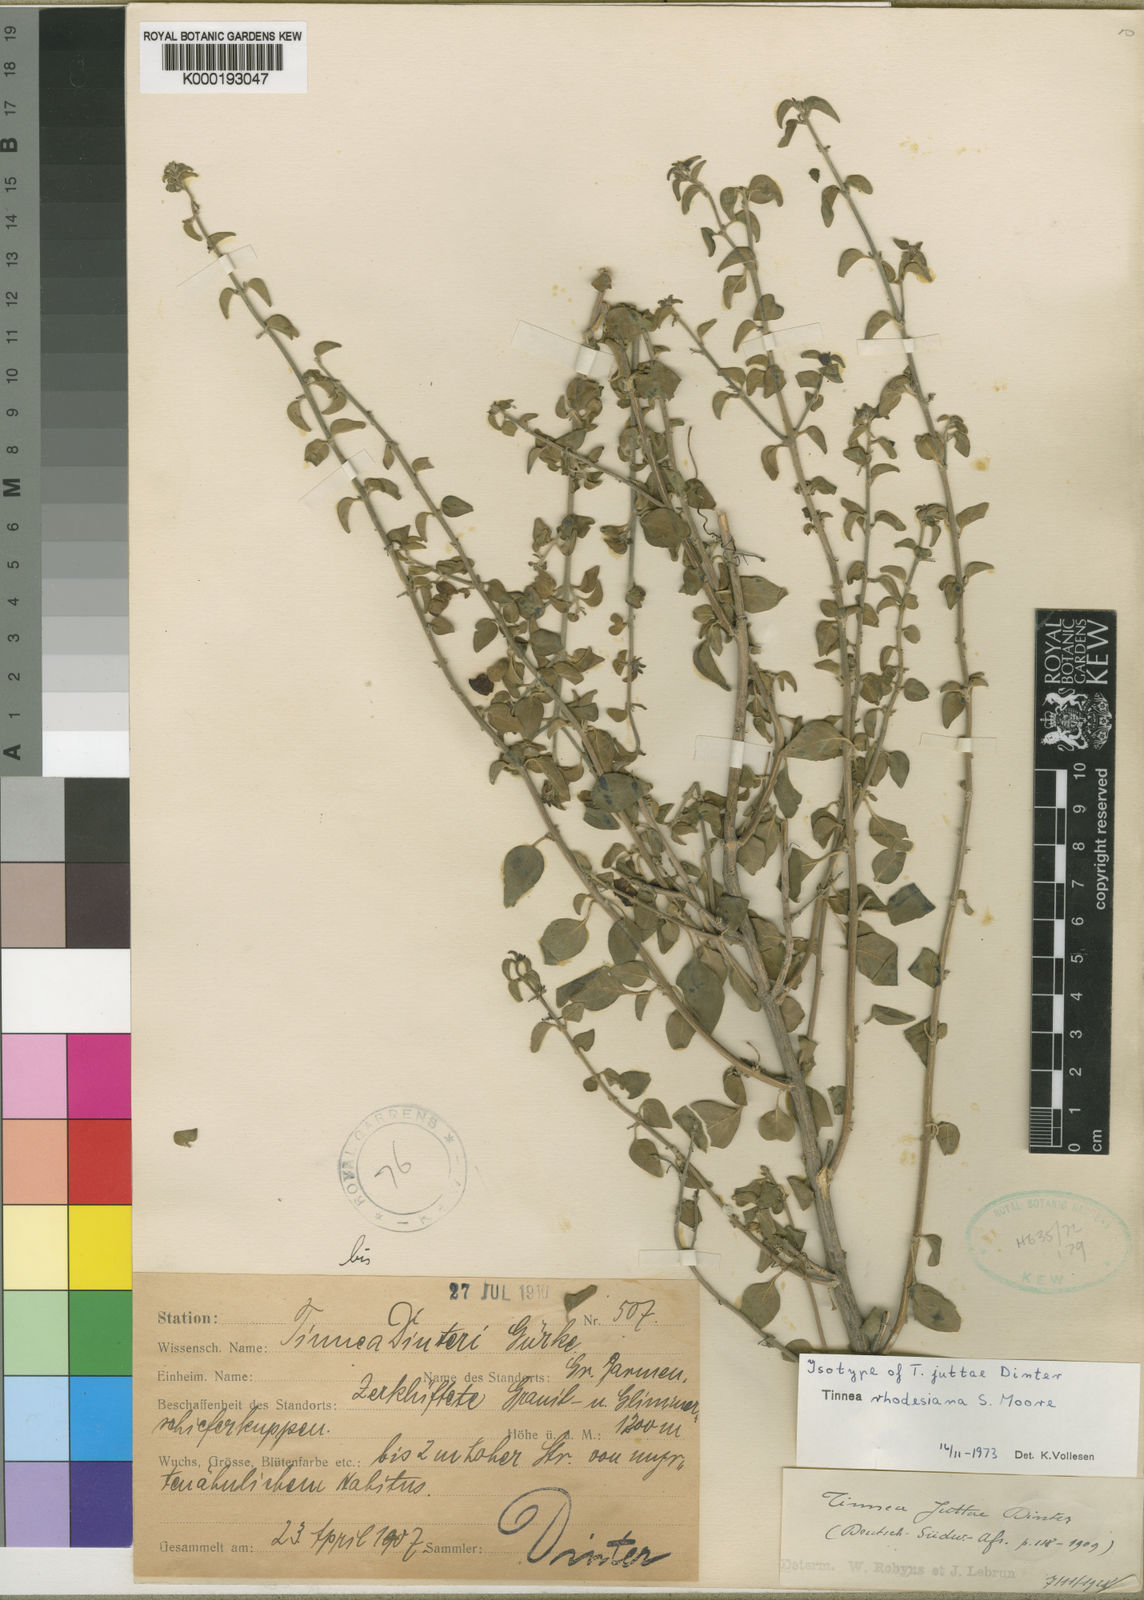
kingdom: Plantae
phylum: Tracheophyta
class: Magnoliopsida
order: Lamiales
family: Lamiaceae
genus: Tinnea
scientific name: Tinnea rhodesiana
